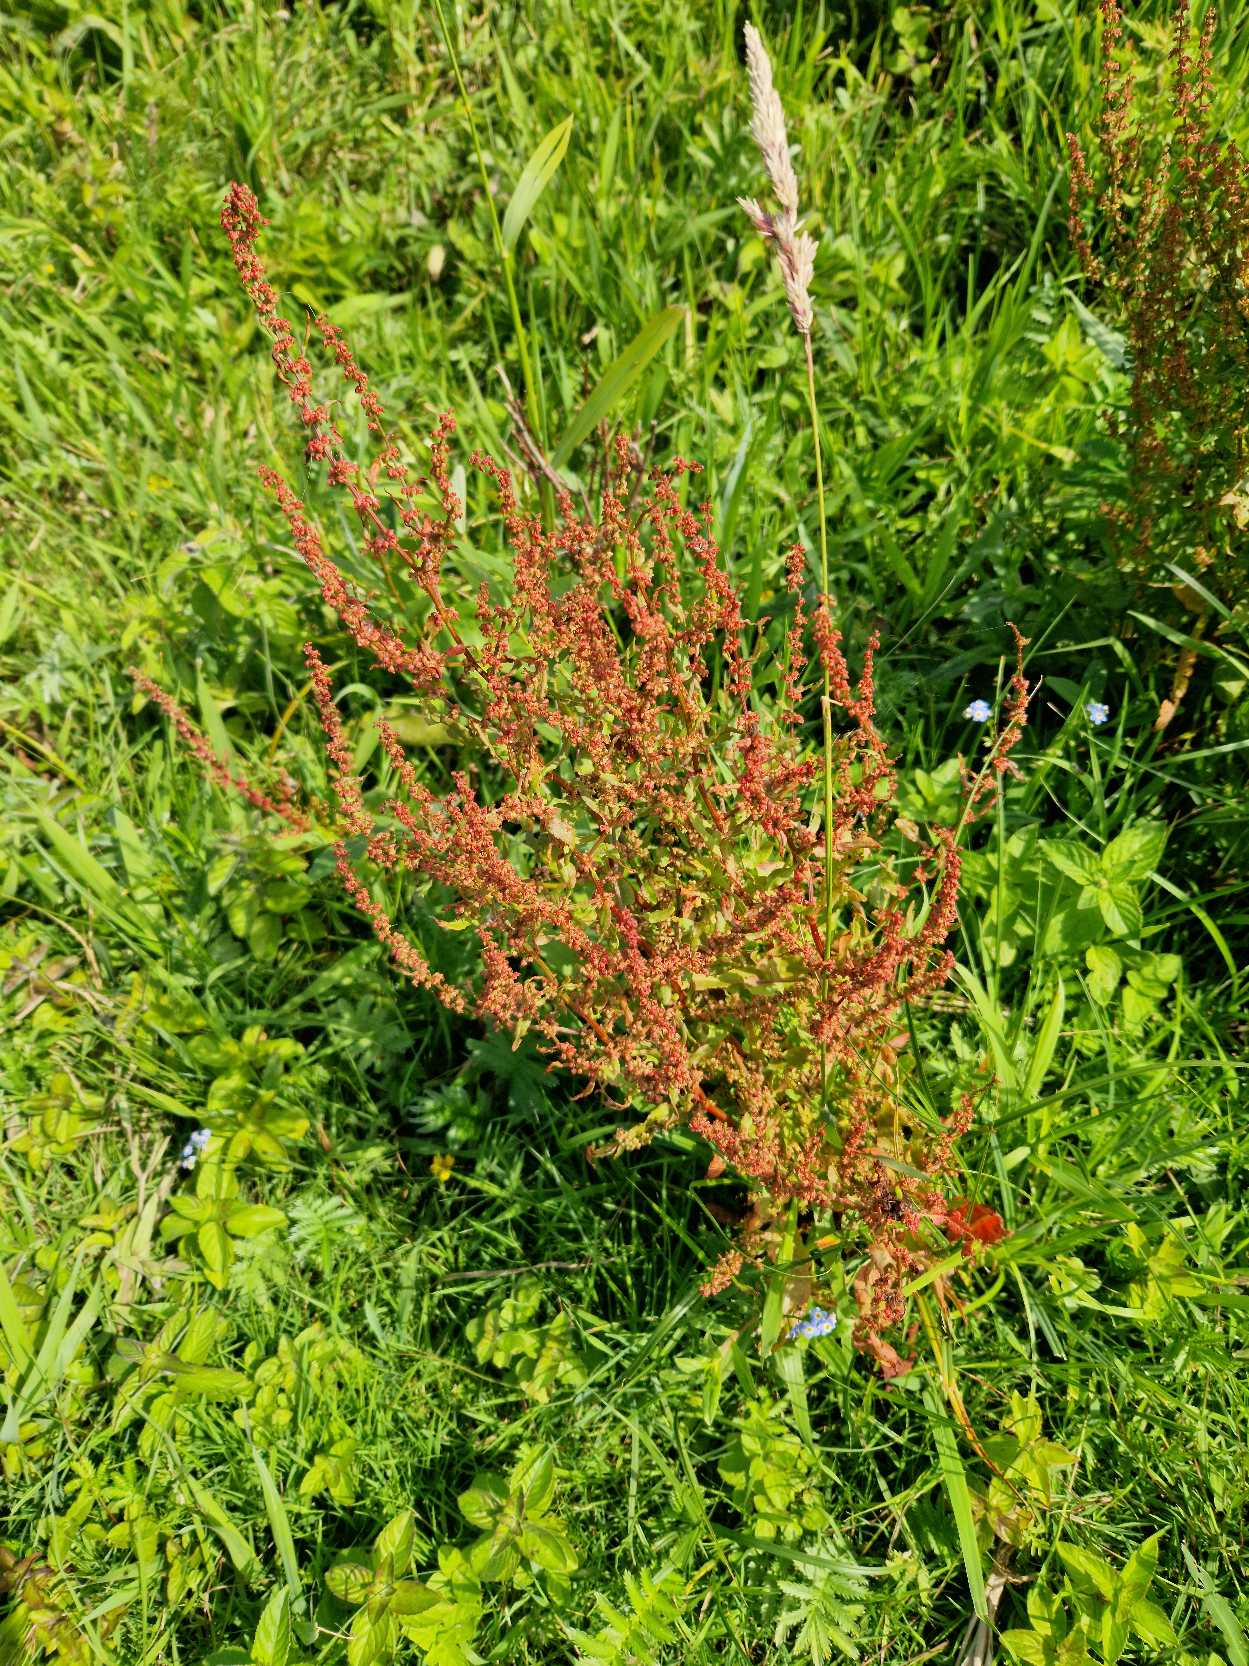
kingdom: Plantae
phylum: Tracheophyta
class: Magnoliopsida
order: Caryophyllales
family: Polygonaceae
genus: Rumex
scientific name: Rumex conglomeratus
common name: Nøgle-skræppe
